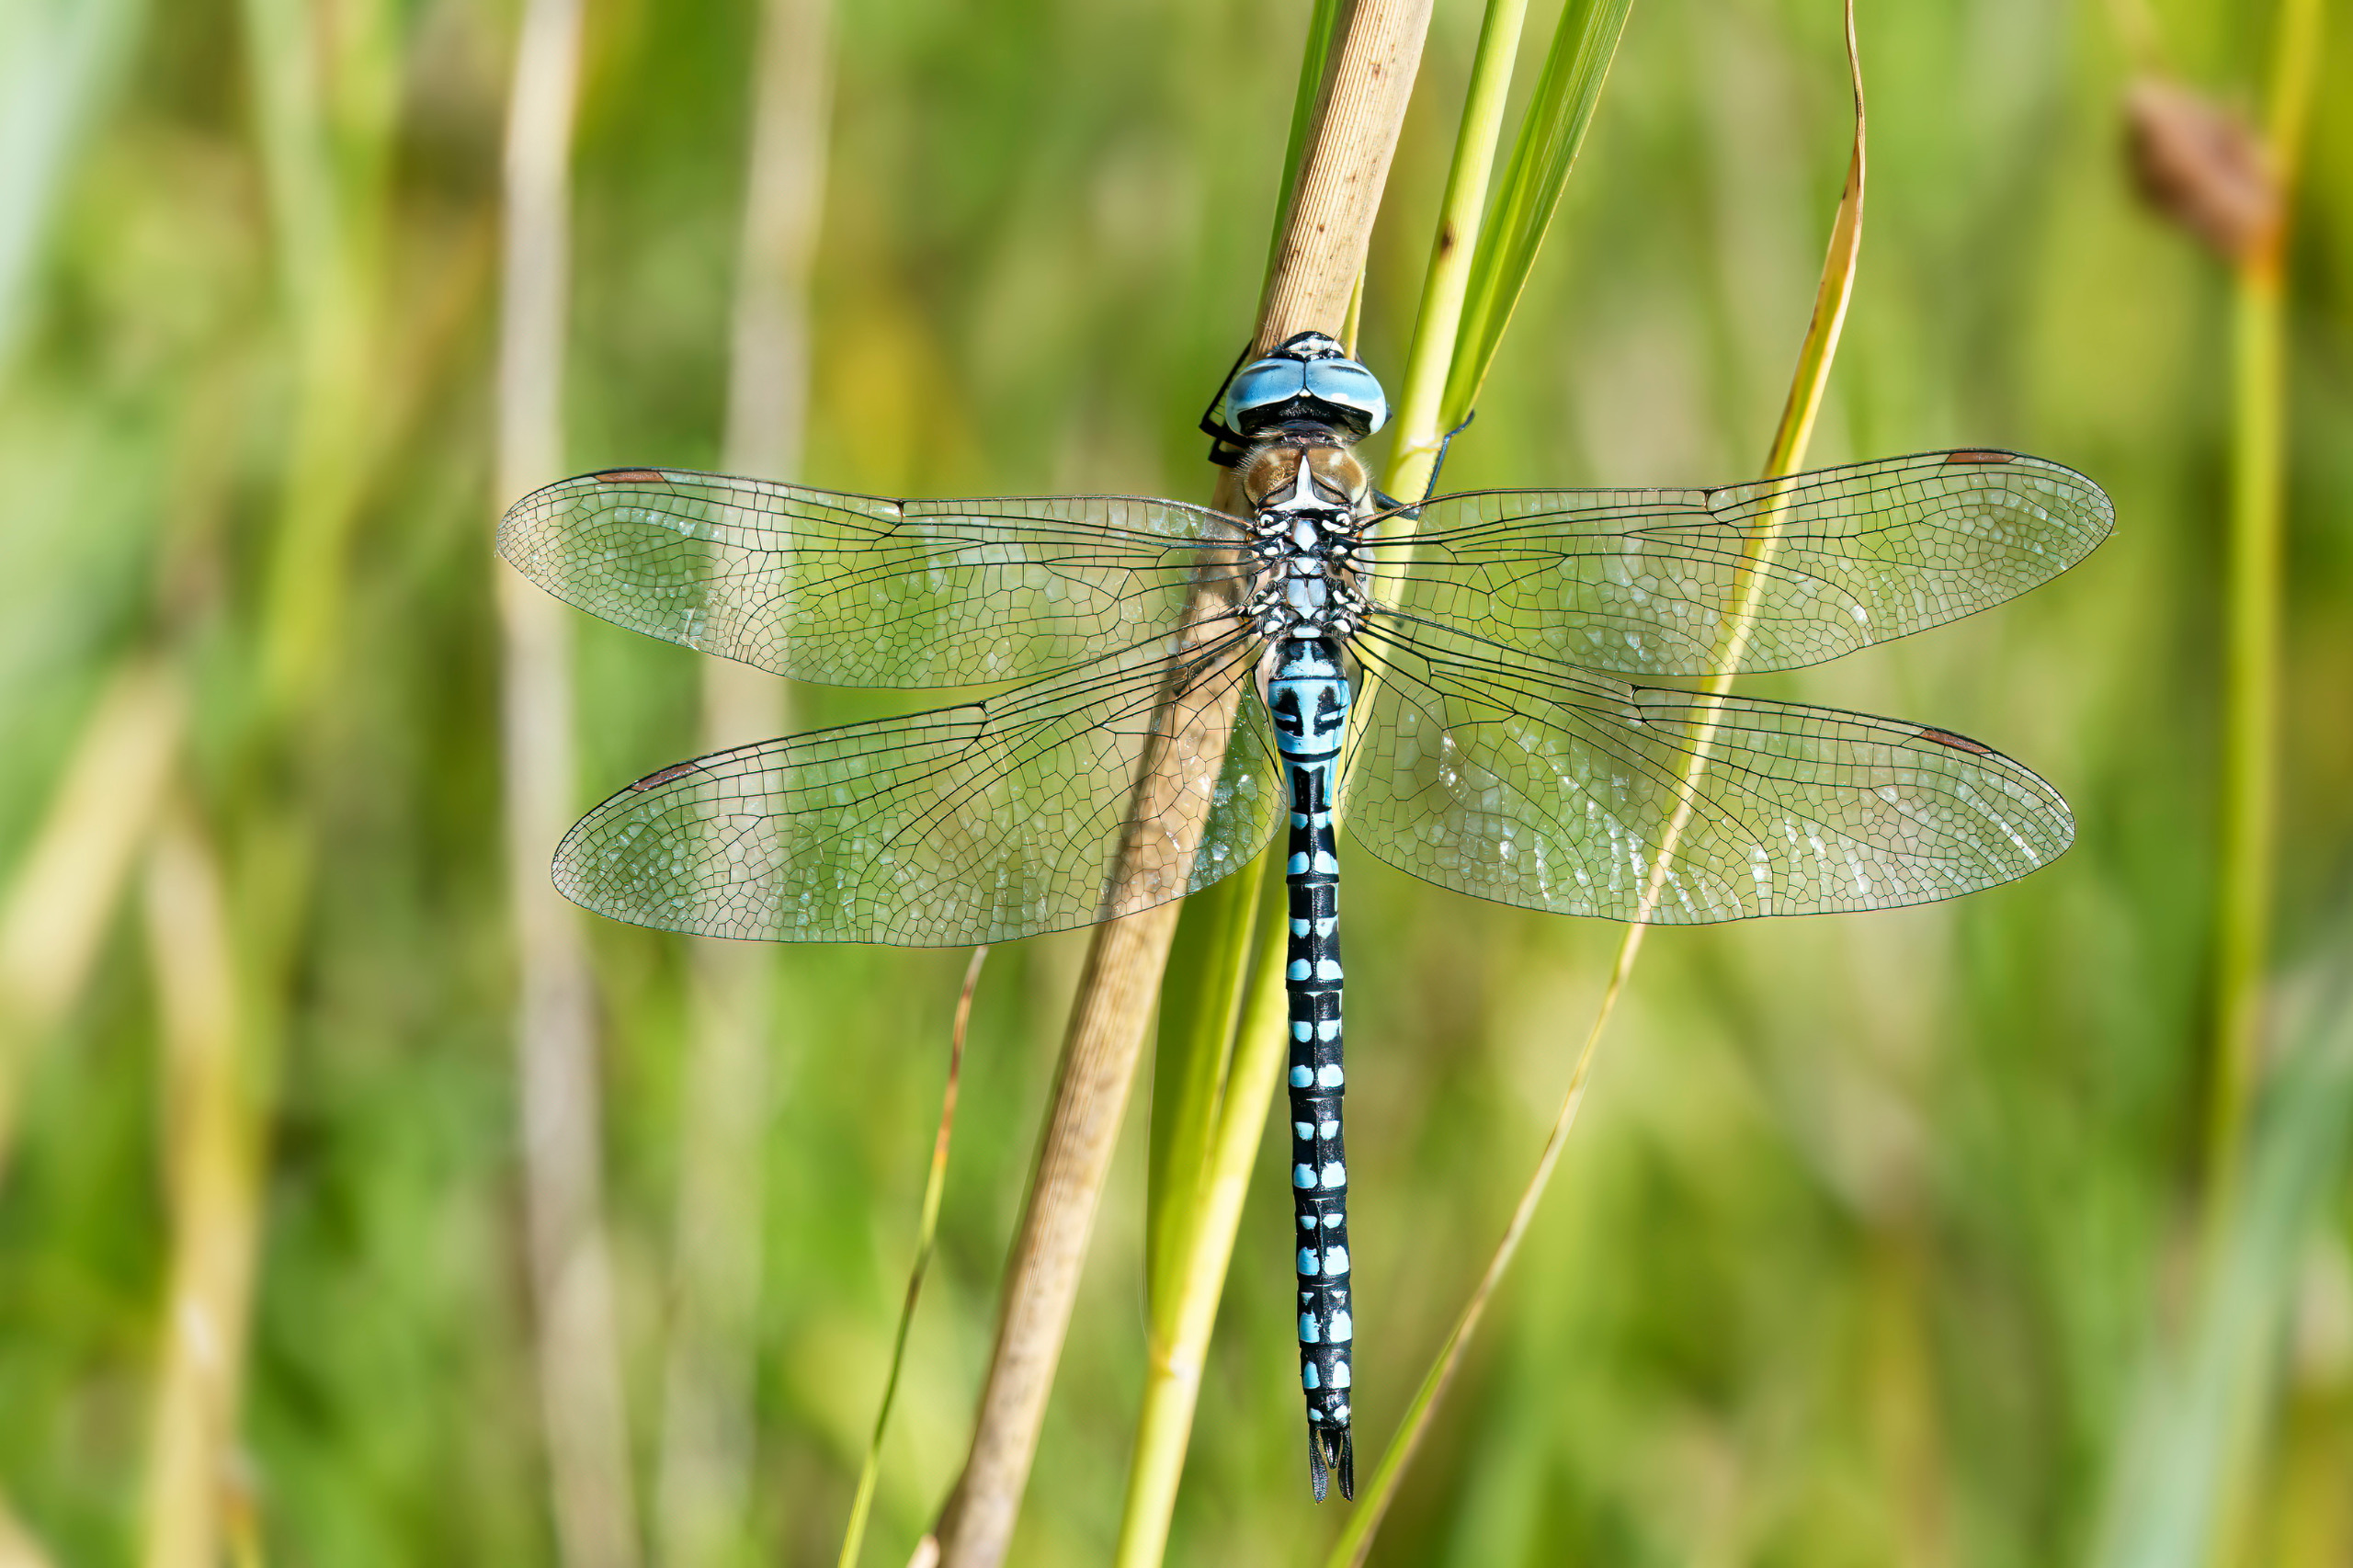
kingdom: Animalia
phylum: Arthropoda
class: Insecta
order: Odonata
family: Aeshnidae
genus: Aeshna
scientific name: Aeshna affinis
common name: Sydlig mosaikguldsmed
